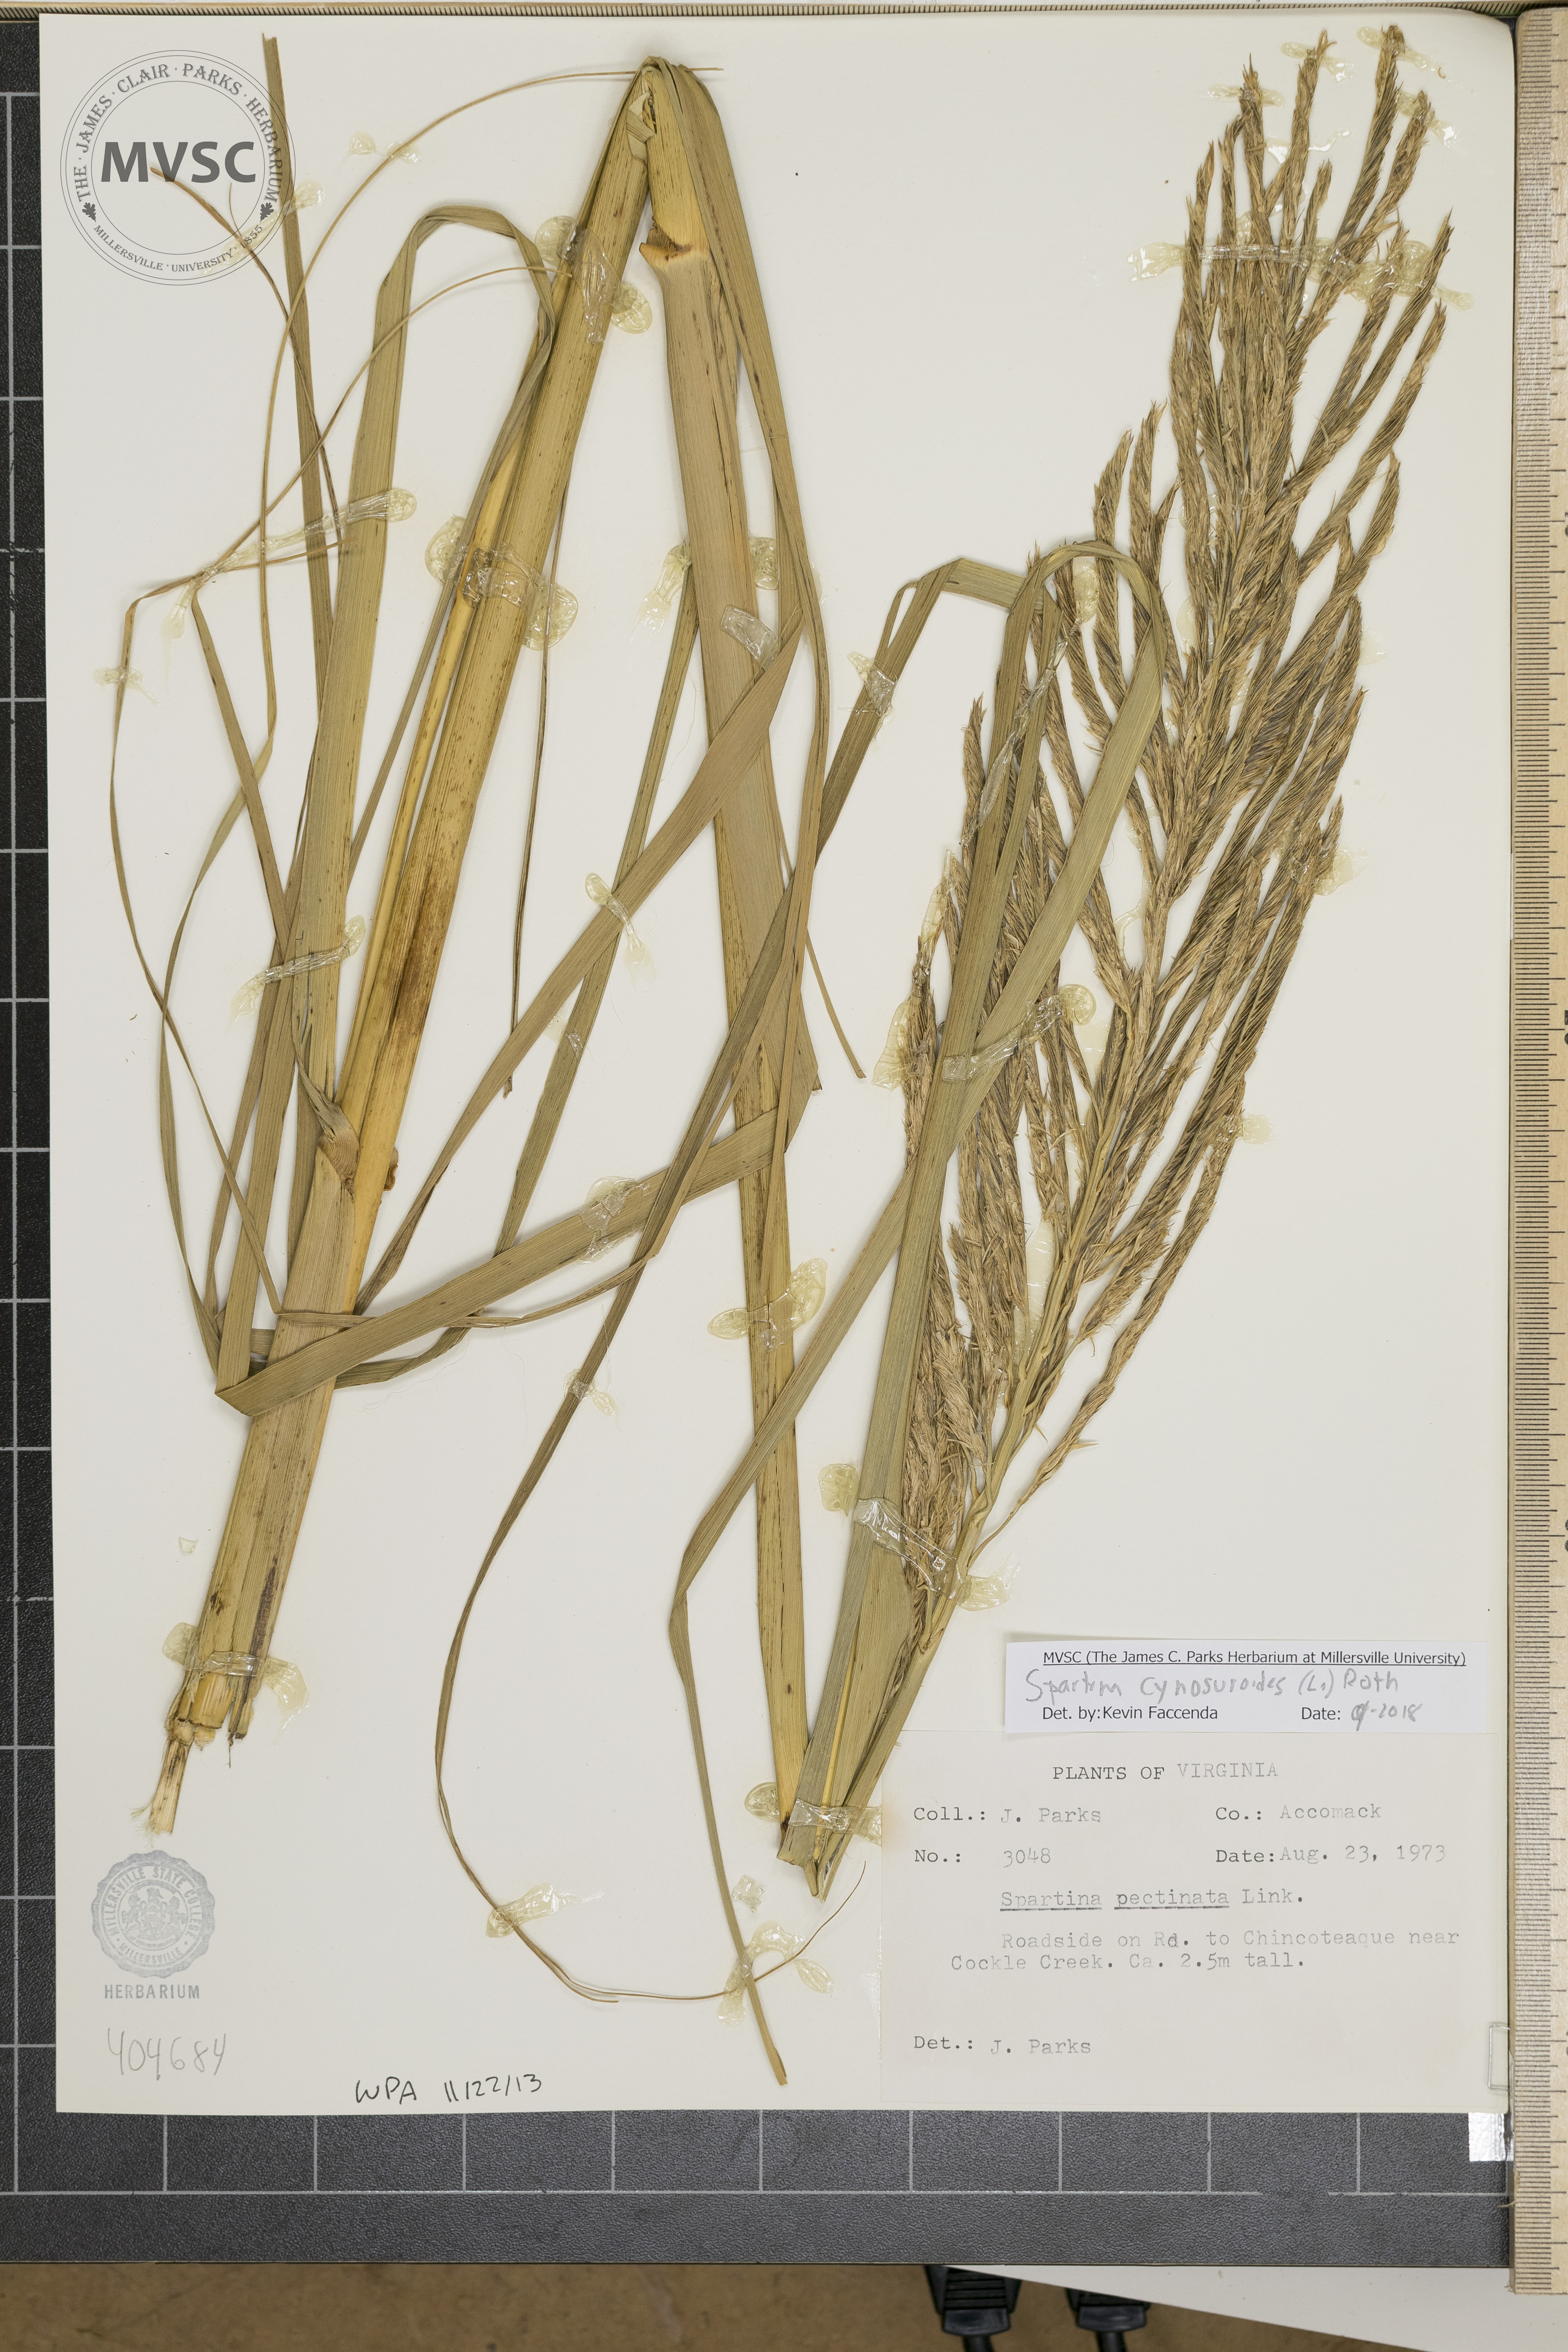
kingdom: Plantae
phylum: Tracheophyta
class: Liliopsida
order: Poales
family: Poaceae
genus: Sporobolus
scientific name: Sporobolus cynosuroides
